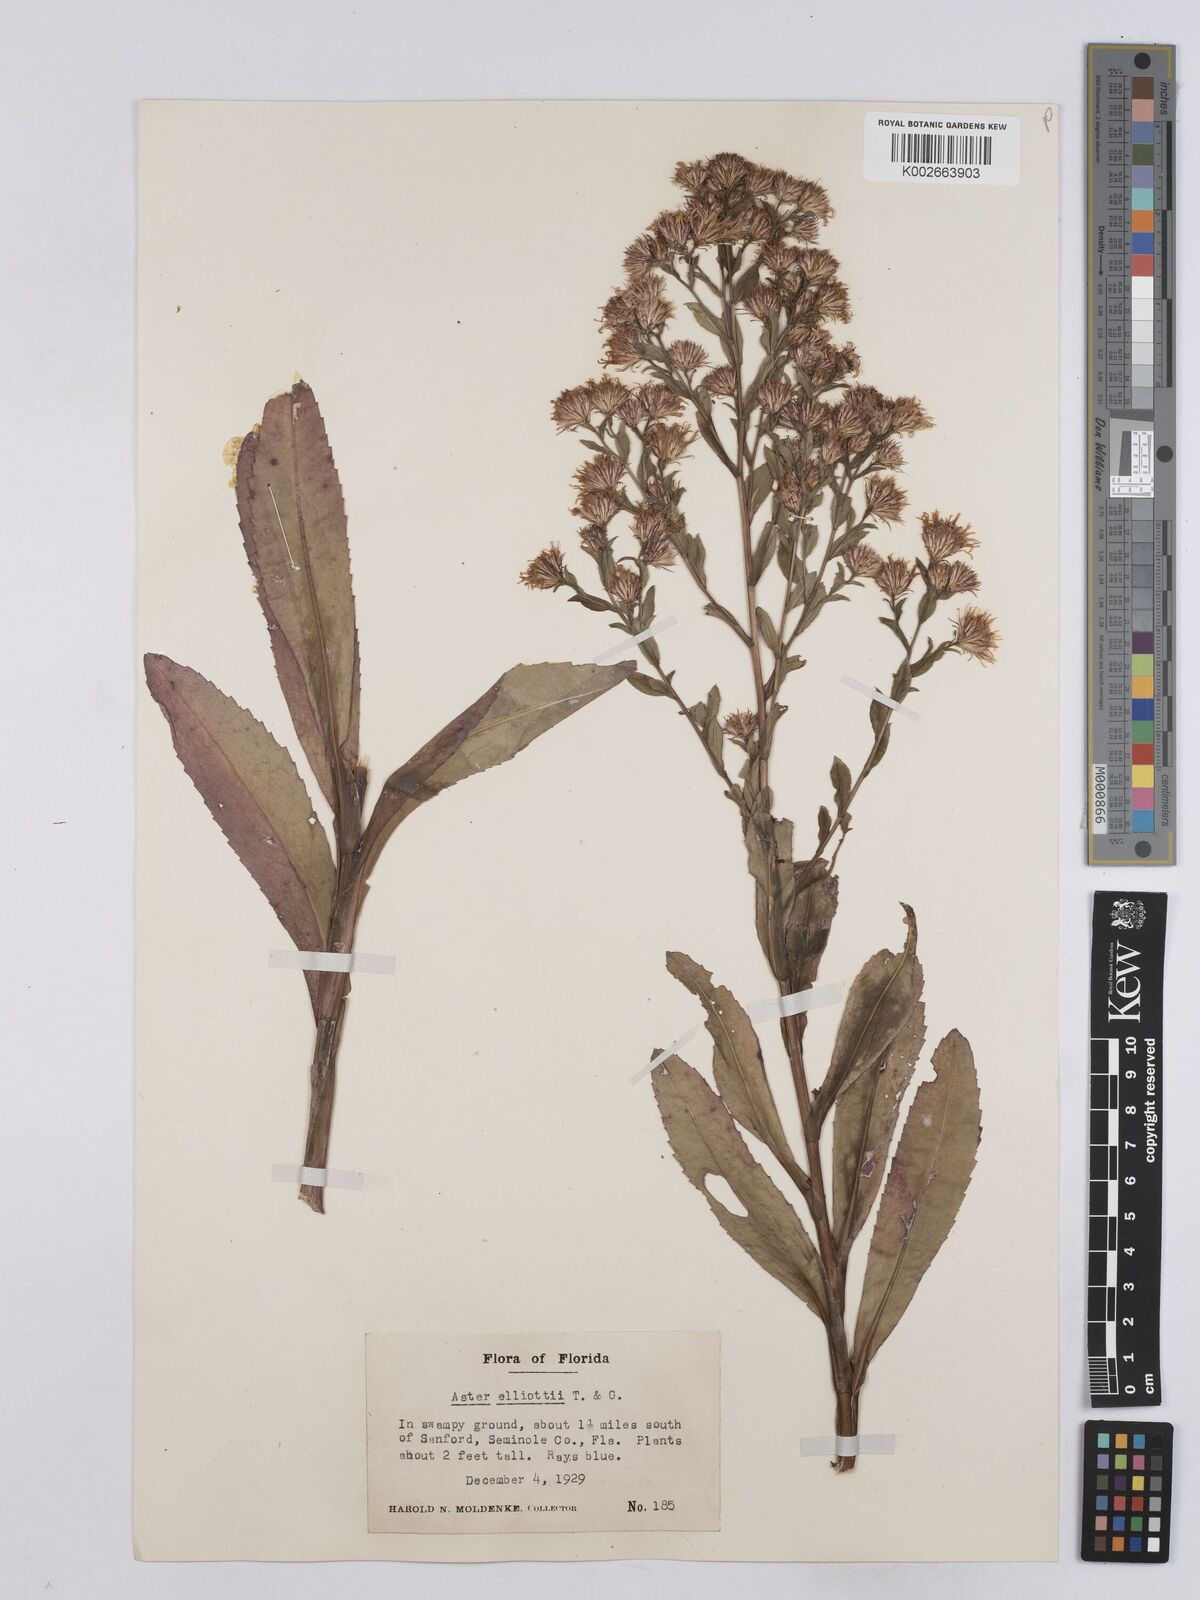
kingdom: Plantae
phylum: Tracheophyta
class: Magnoliopsida
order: Asterales
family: Asteraceae
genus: Symphyotrichum
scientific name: Symphyotrichum elliottii
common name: Southern swamp aster
